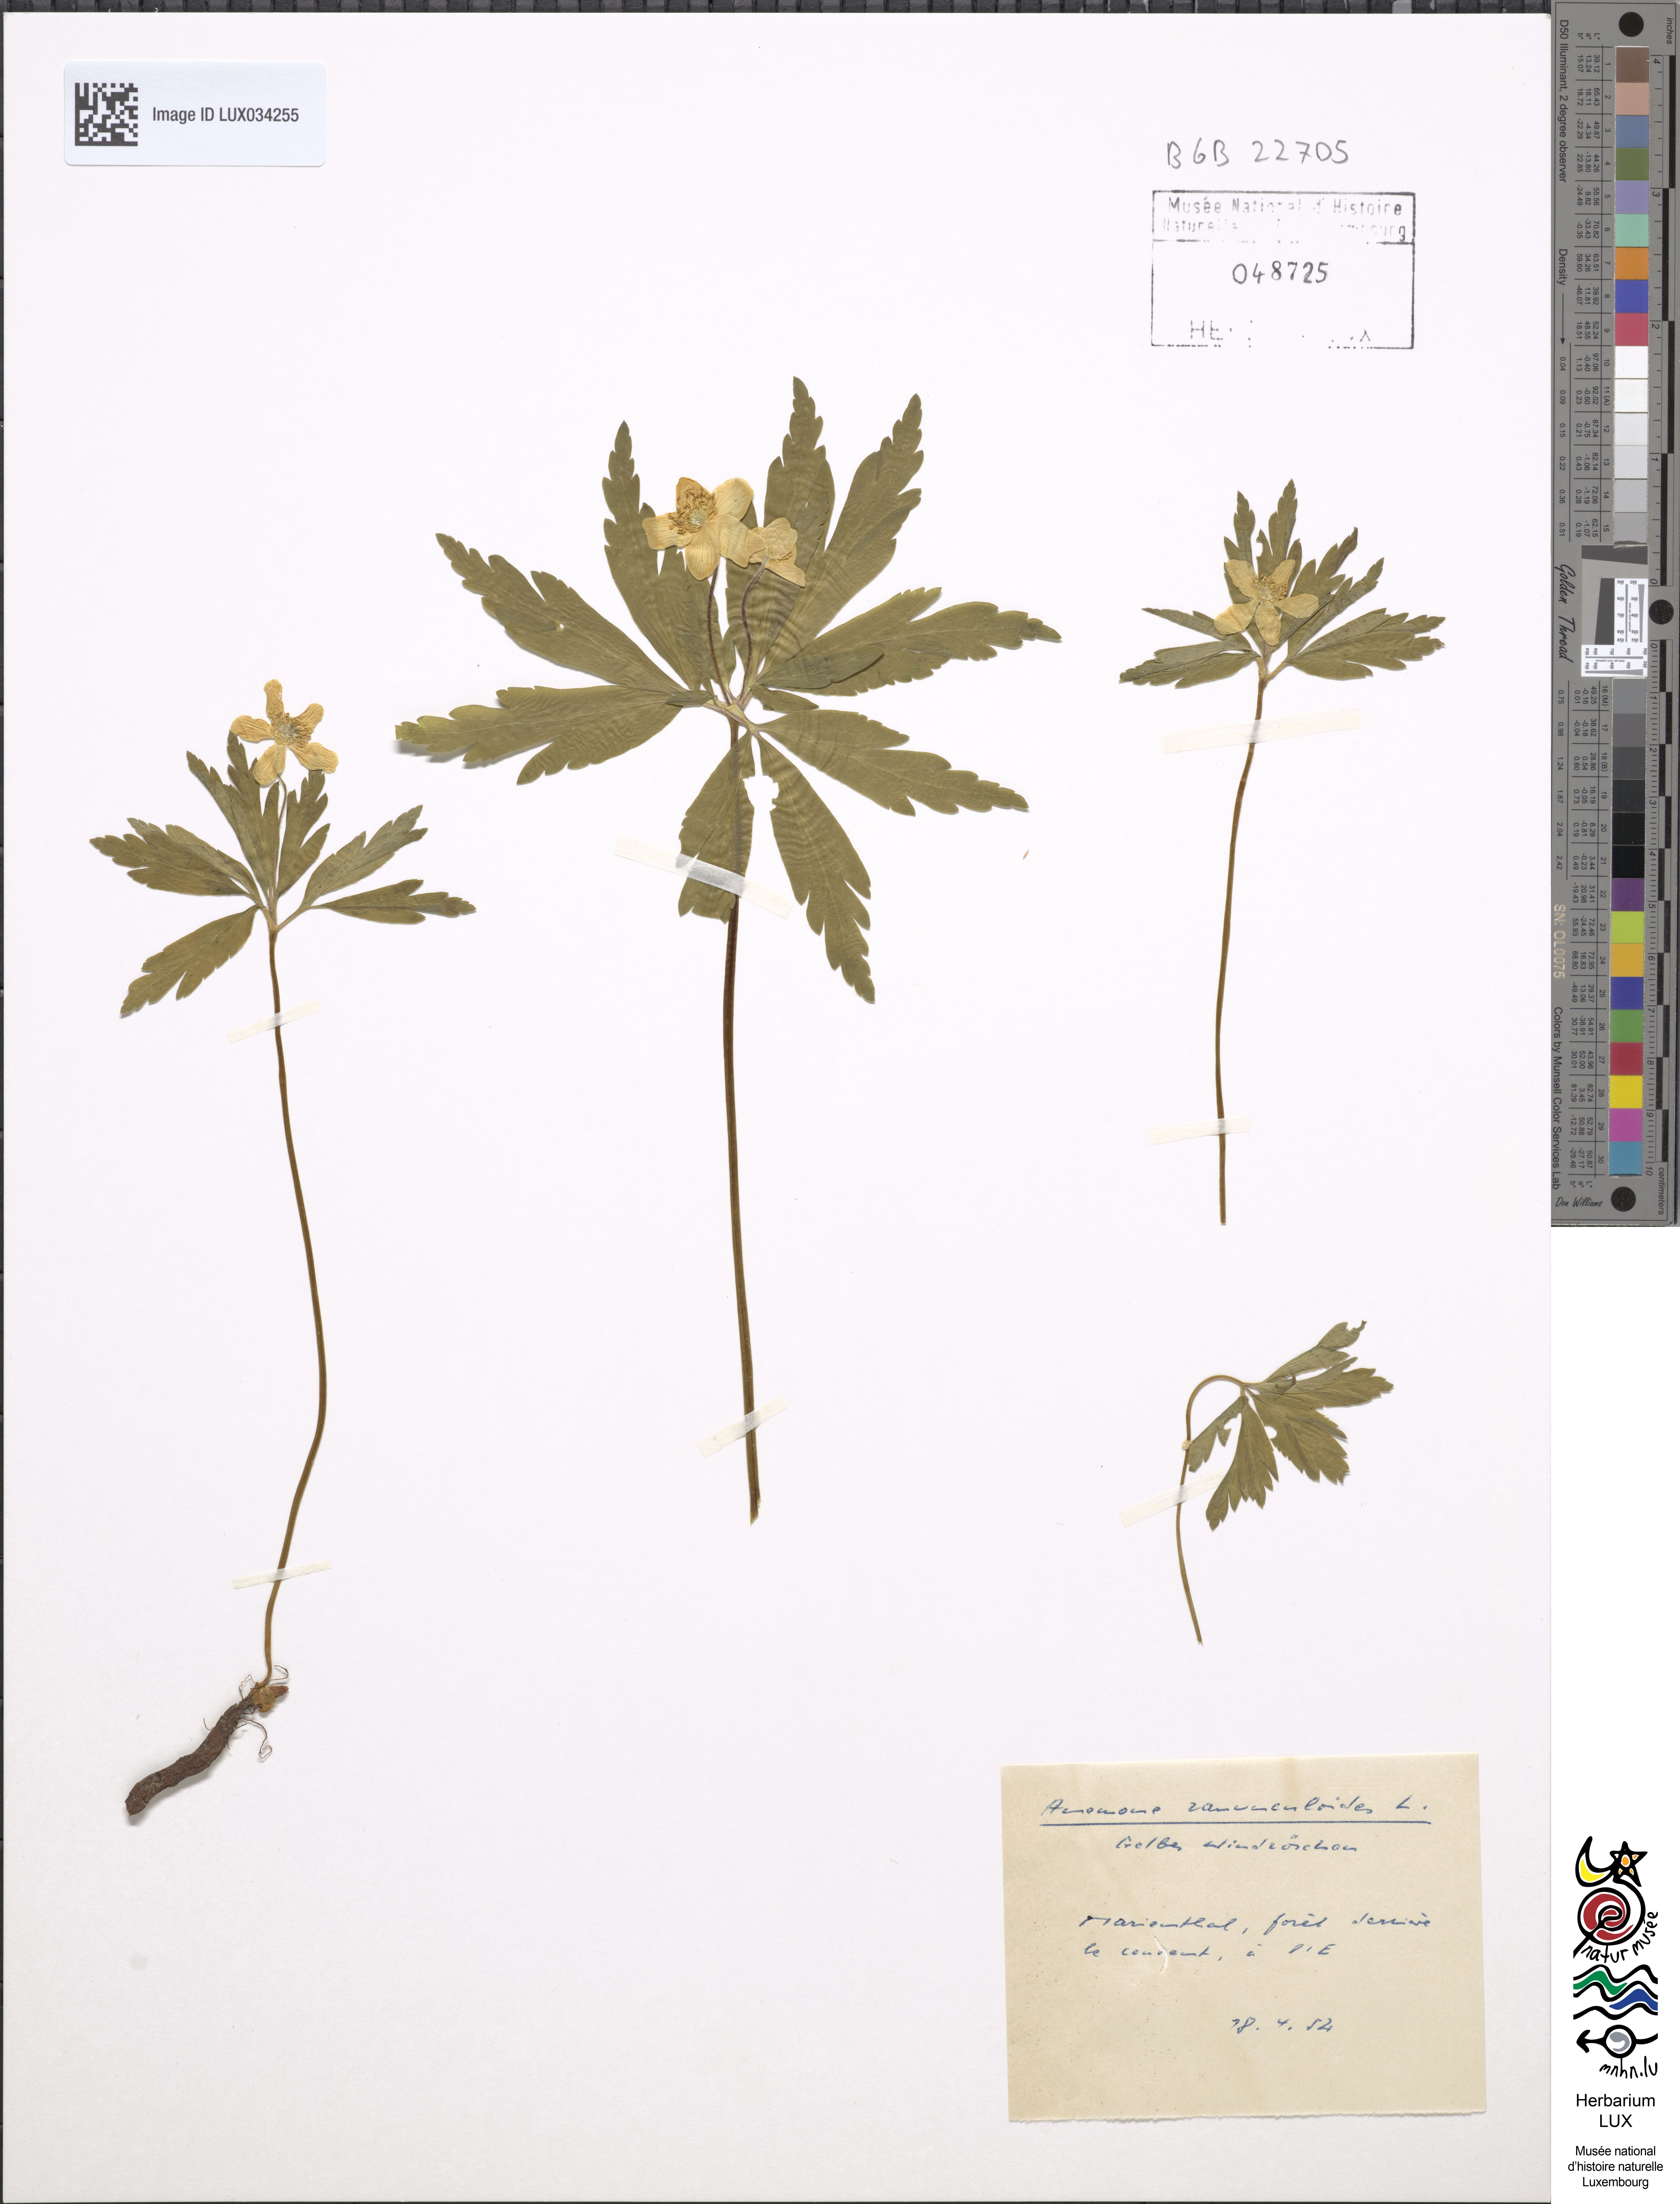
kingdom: Plantae
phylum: Tracheophyta
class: Magnoliopsida
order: Ranunculales
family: Ranunculaceae
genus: Anemone
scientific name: Anemone ranunculoides
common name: Yellow anemone
